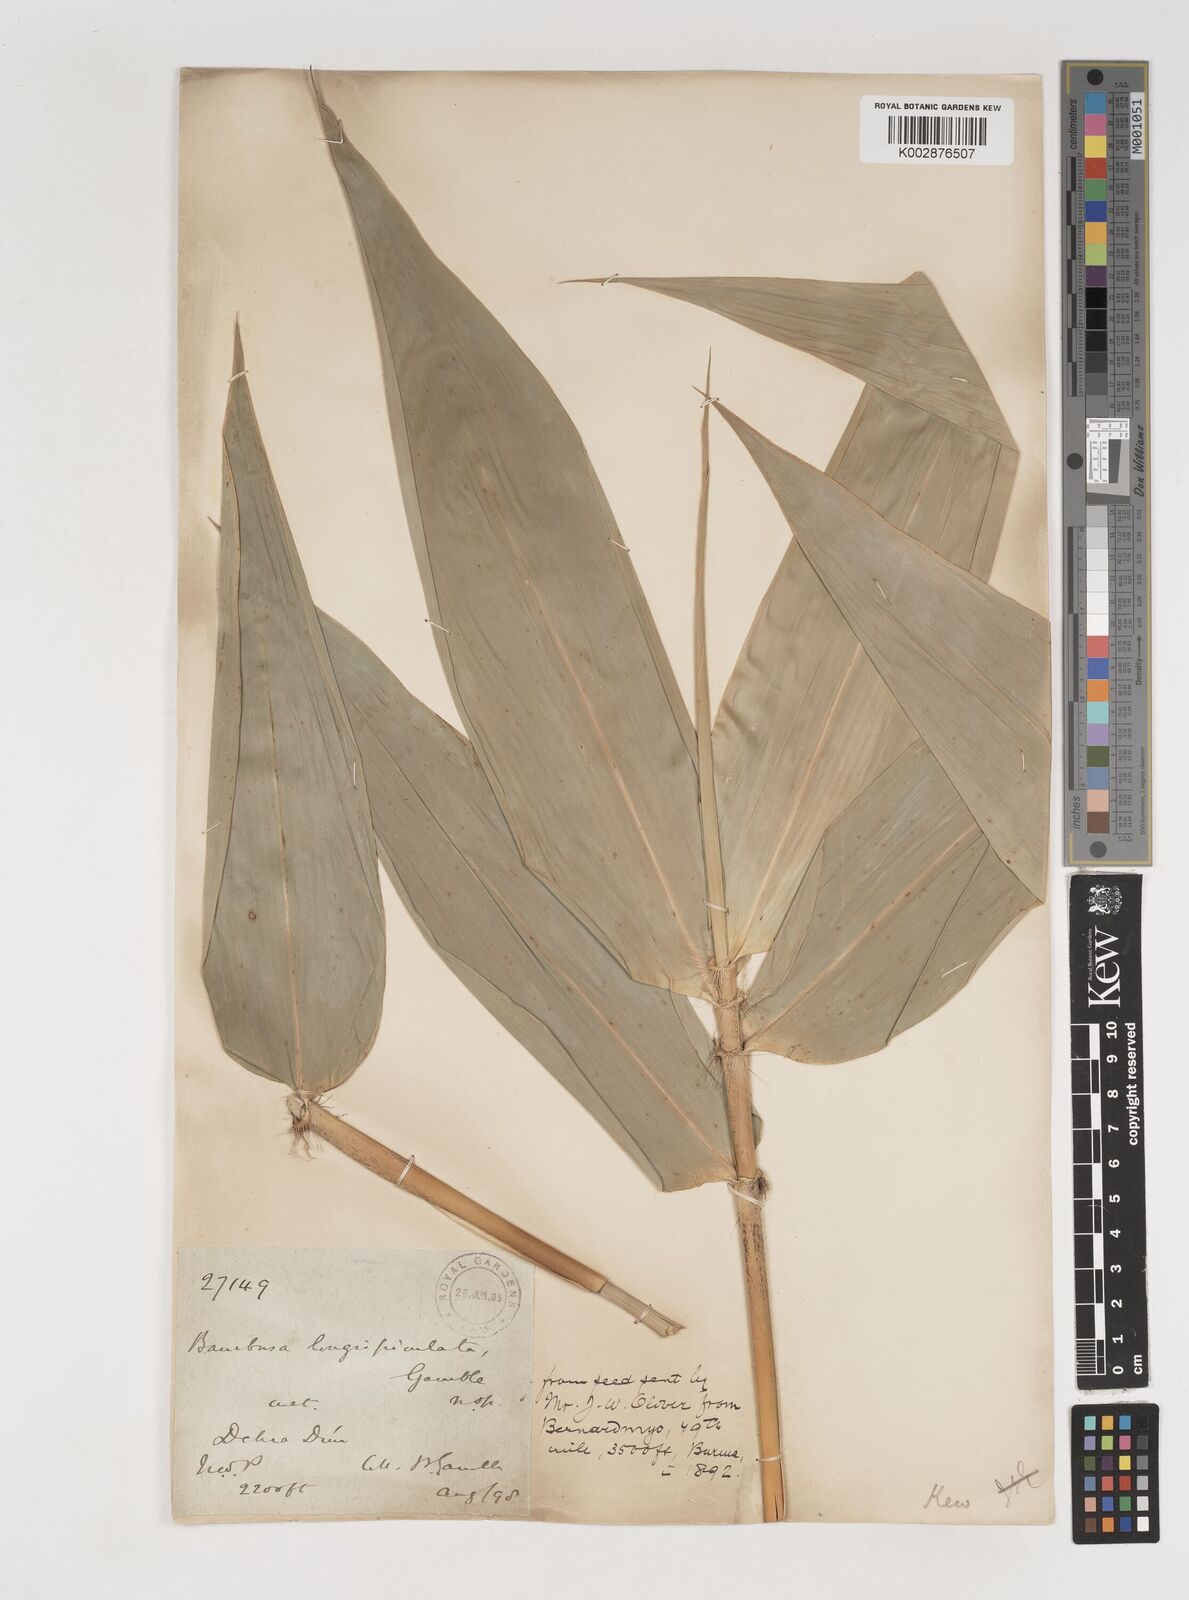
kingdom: Plantae
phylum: Tracheophyta
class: Liliopsida
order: Poales
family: Poaceae
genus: Bambusa
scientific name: Bambusa longispiculata
